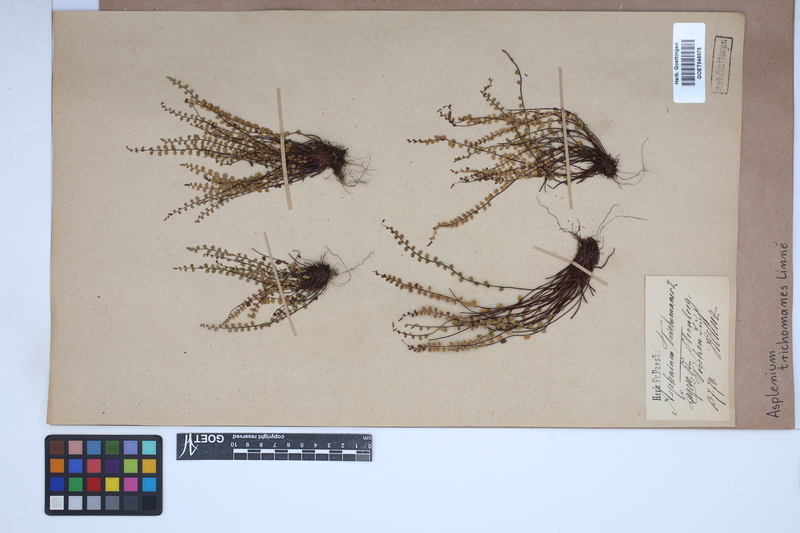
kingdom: Plantae
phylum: Tracheophyta
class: Polypodiopsida
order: Polypodiales
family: Aspleniaceae
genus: Asplenium
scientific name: Asplenium trichomanes
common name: Maidenhair spleenwort
